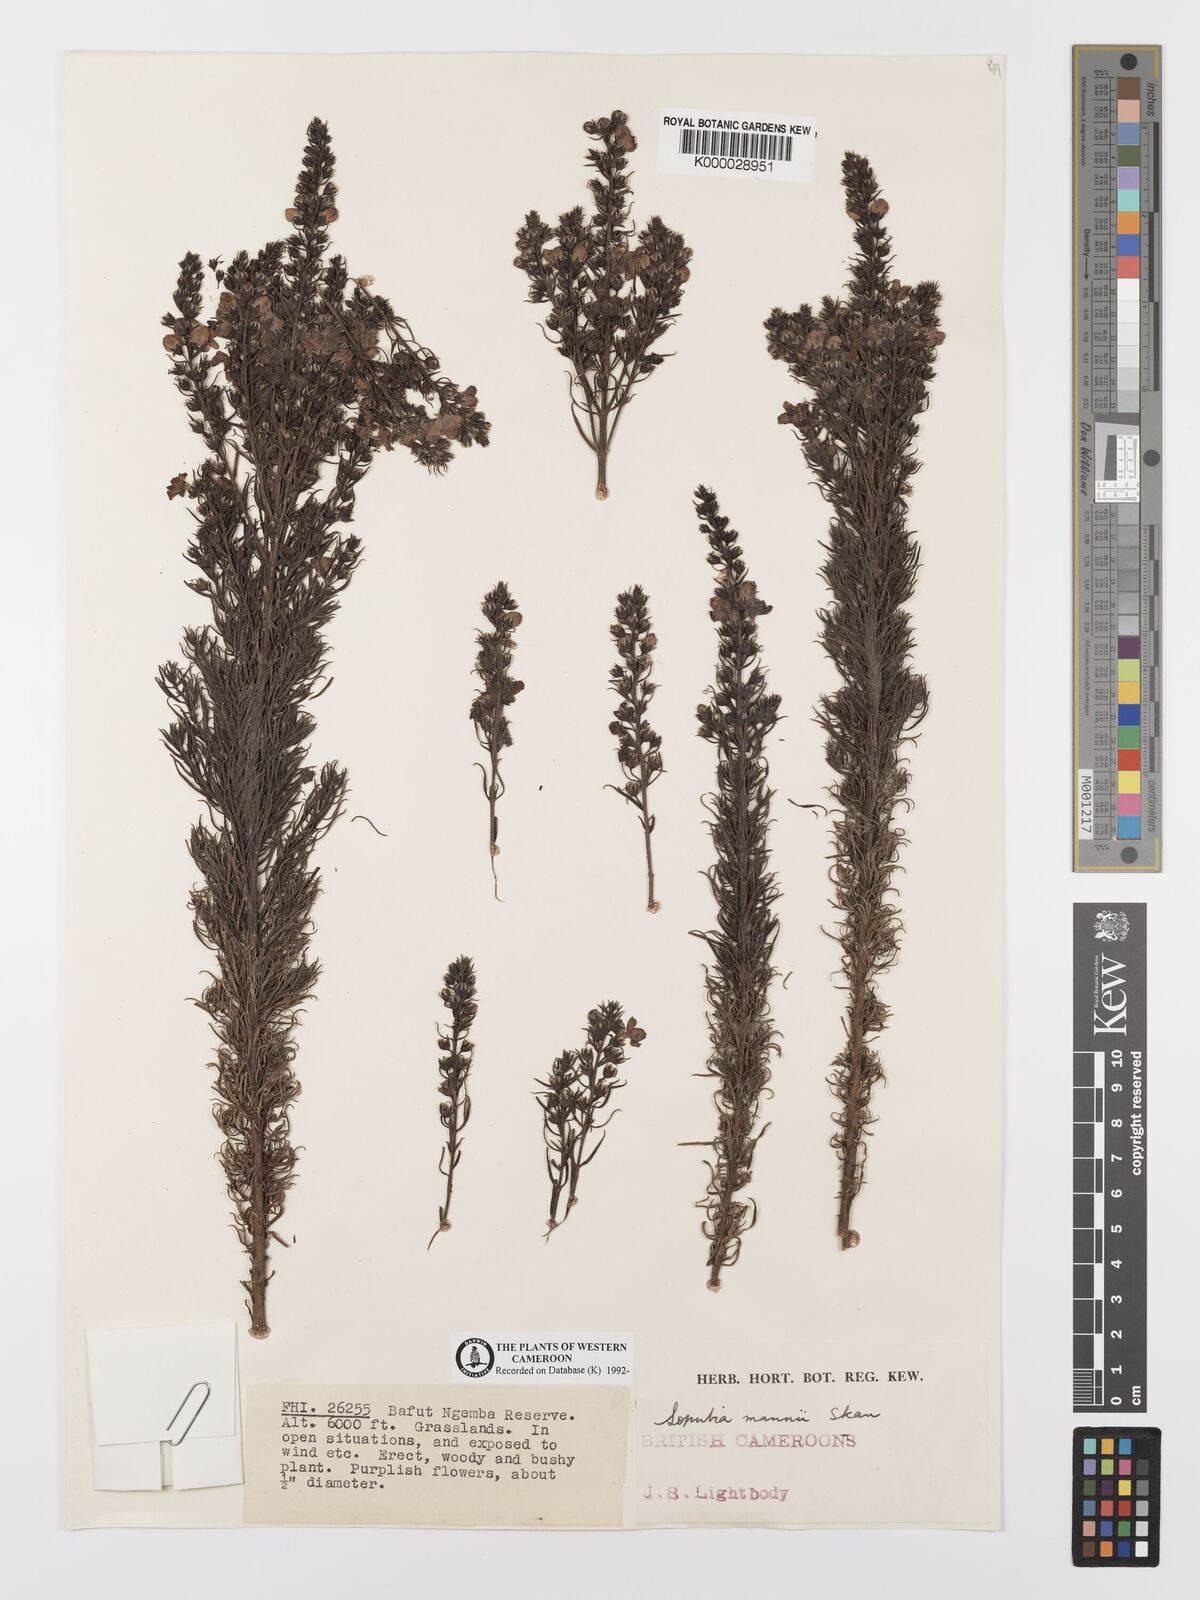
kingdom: Plantae
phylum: Tracheophyta
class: Magnoliopsida
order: Lamiales
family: Orobanchaceae
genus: Sopubia
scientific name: Sopubia mannii
